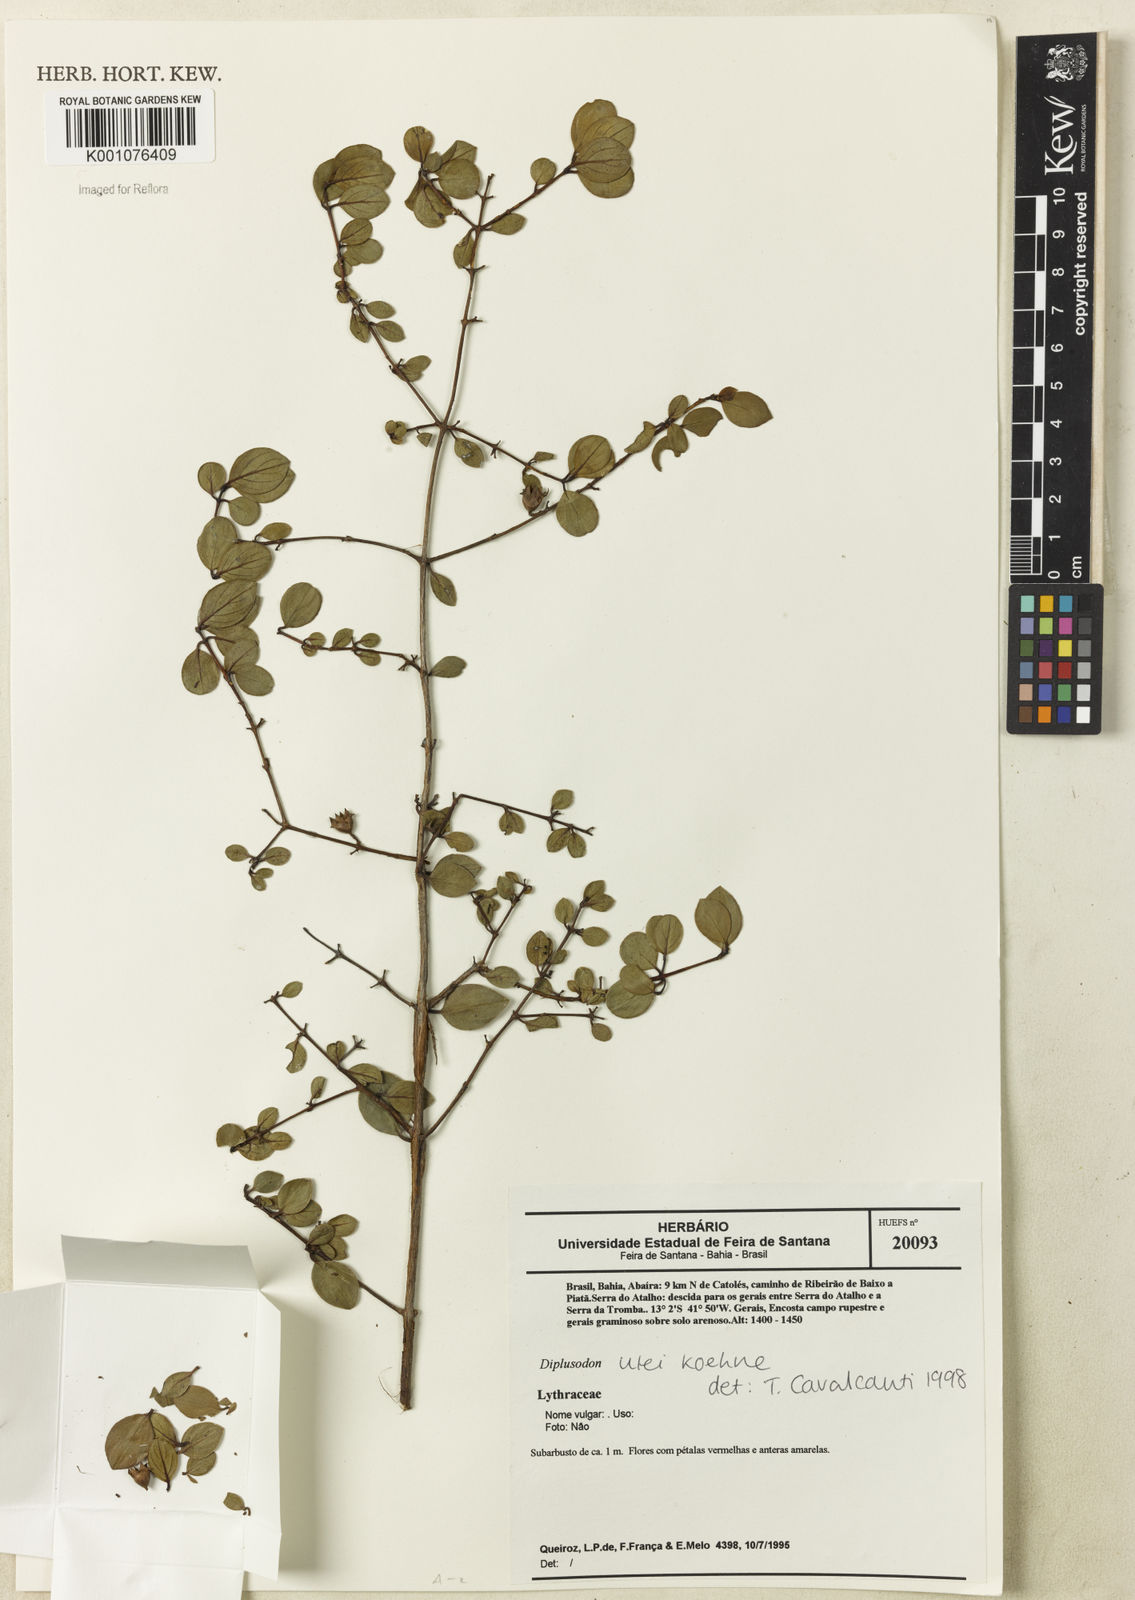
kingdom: Plantae
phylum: Tracheophyta
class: Magnoliopsida
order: Myrtales
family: Lythraceae
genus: Diplusodon
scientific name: Diplusodon ulei
